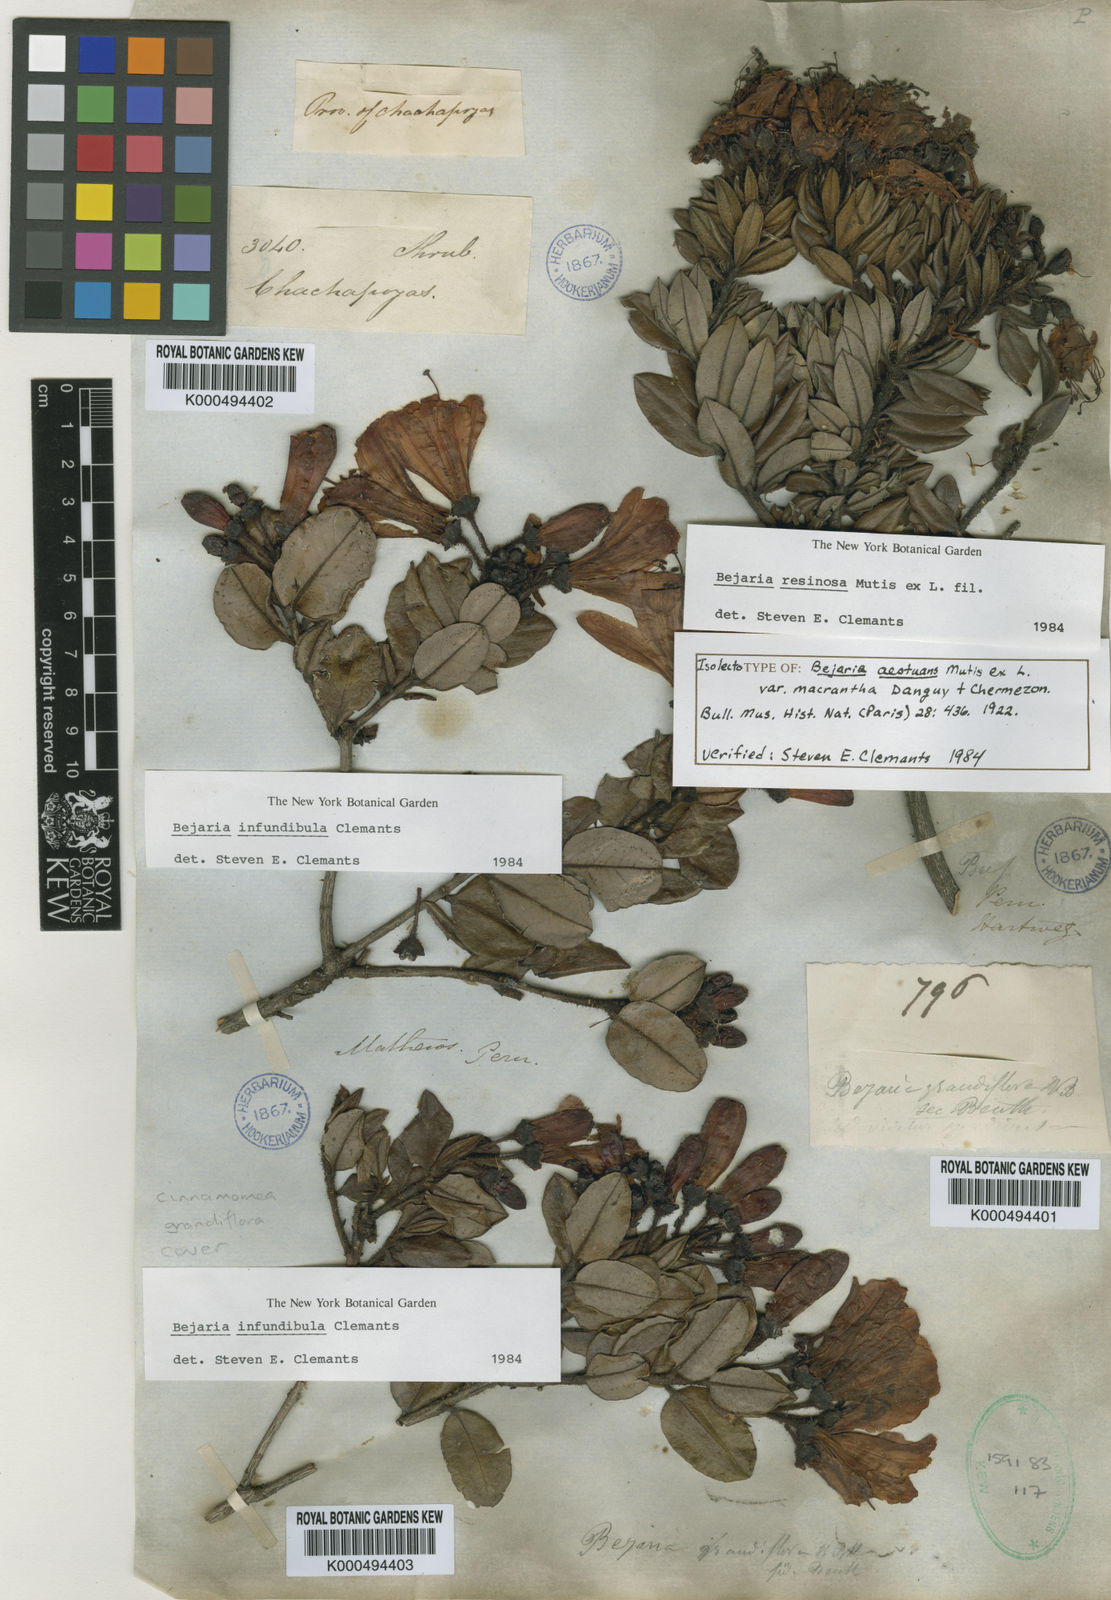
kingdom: Plantae
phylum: Tracheophyta
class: Magnoliopsida
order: Ericales
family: Ericaceae
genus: Bejaria
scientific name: Bejaria resinosa
